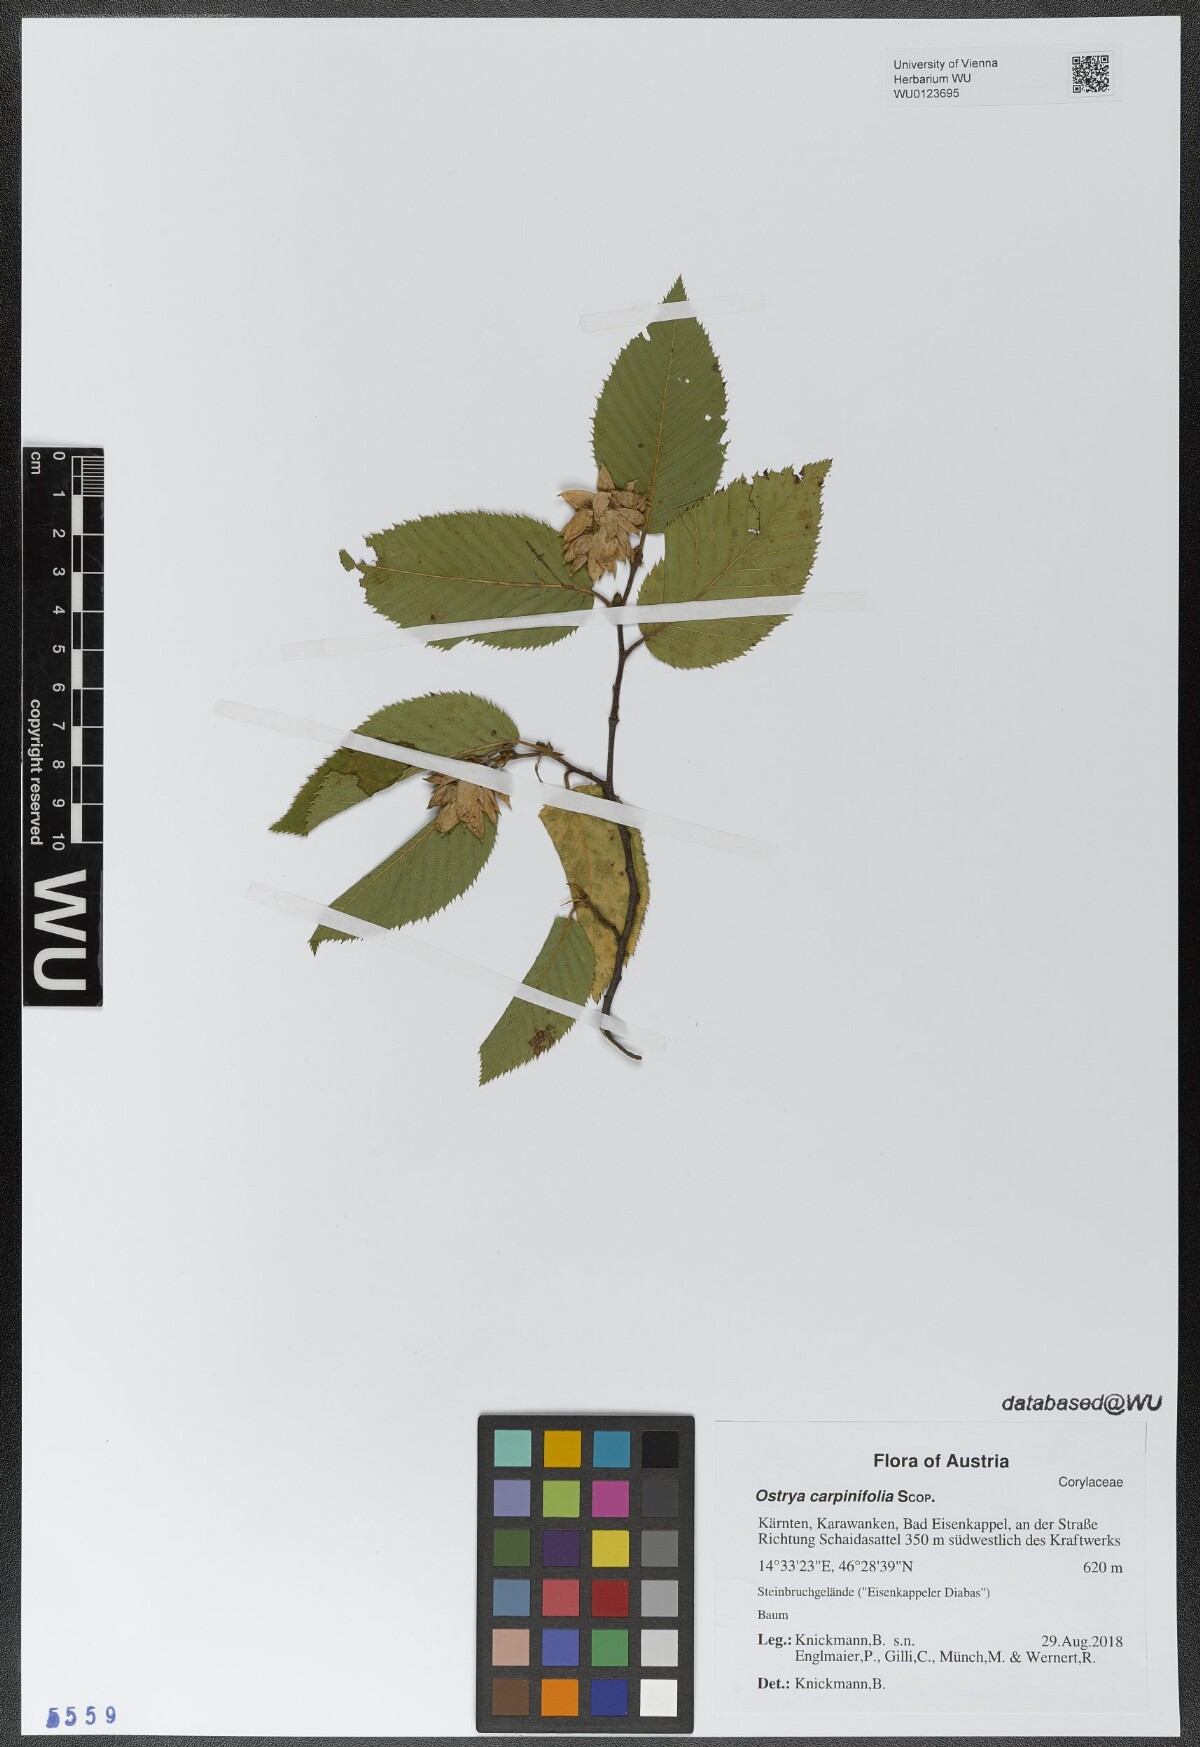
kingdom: Plantae
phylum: Tracheophyta
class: Magnoliopsida
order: Fagales
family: Betulaceae
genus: Ostrya
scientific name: Ostrya carpinifolia
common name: European hop-hornbeam
